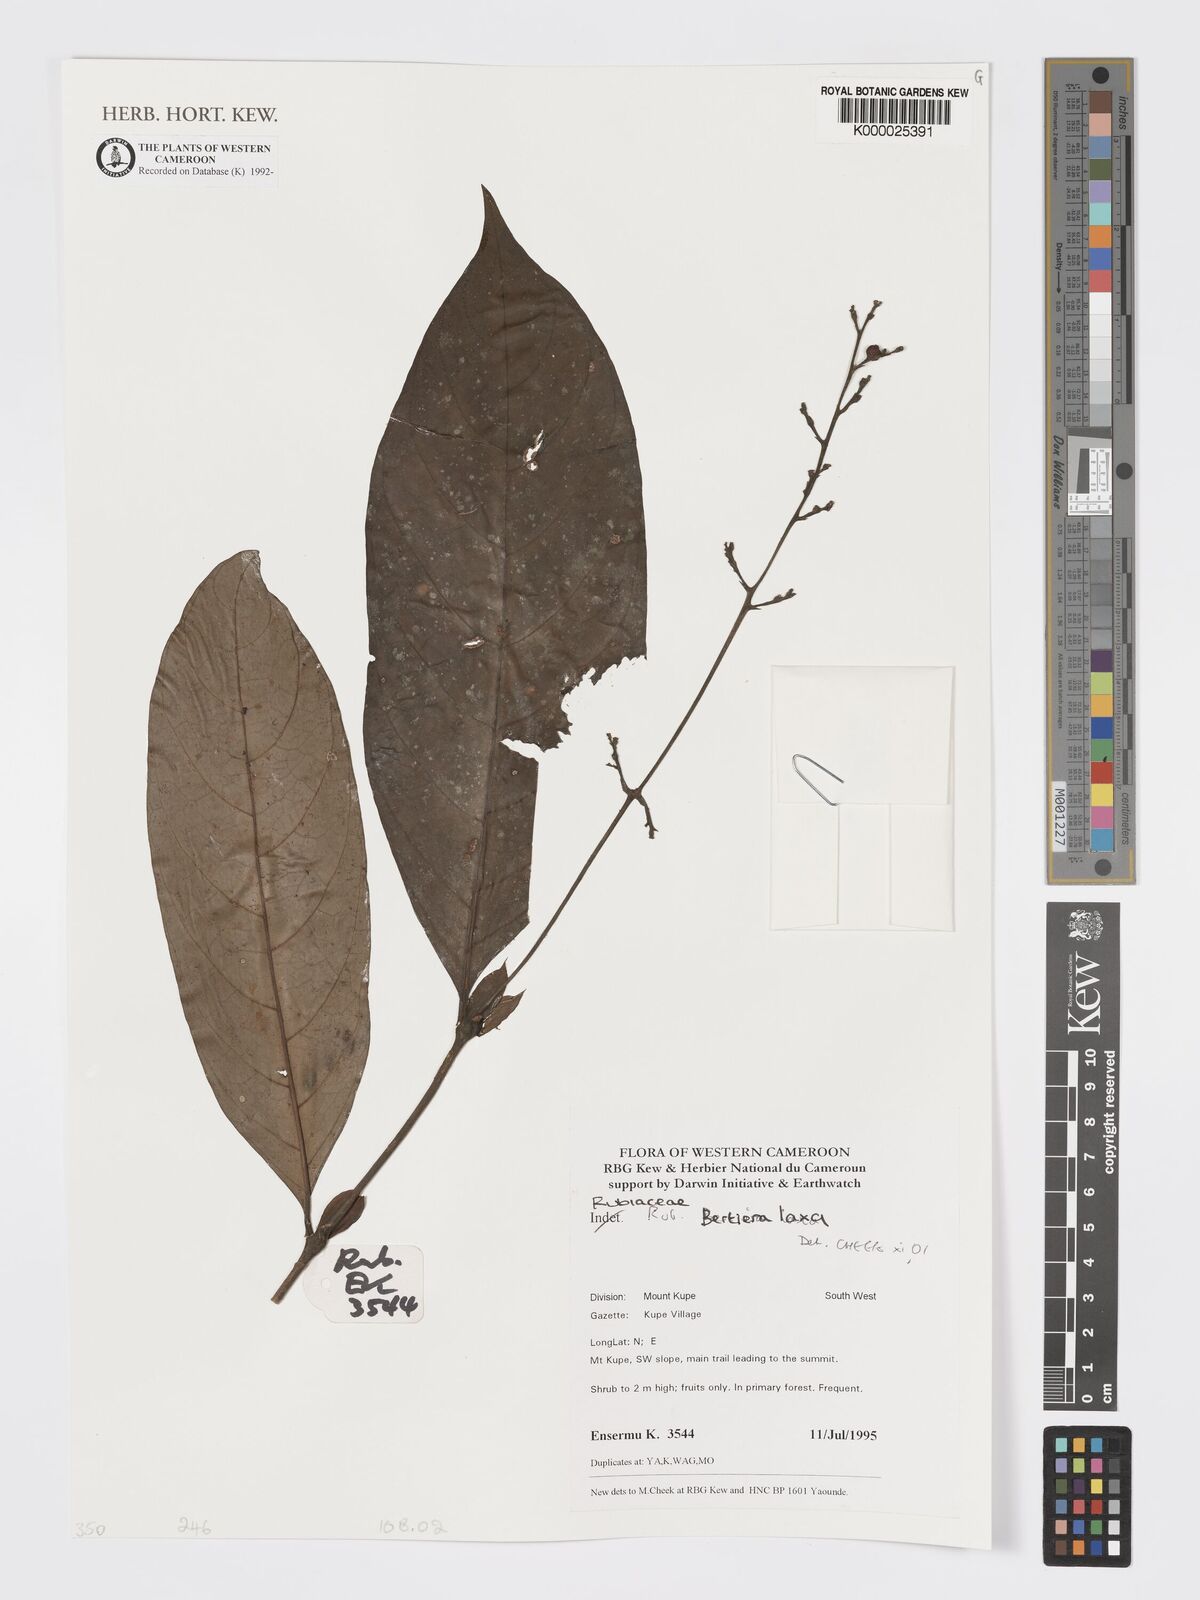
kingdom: Plantae
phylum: Tracheophyta
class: Magnoliopsida
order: Gentianales
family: Rubiaceae
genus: Bertiera
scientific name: Bertiera laxa
